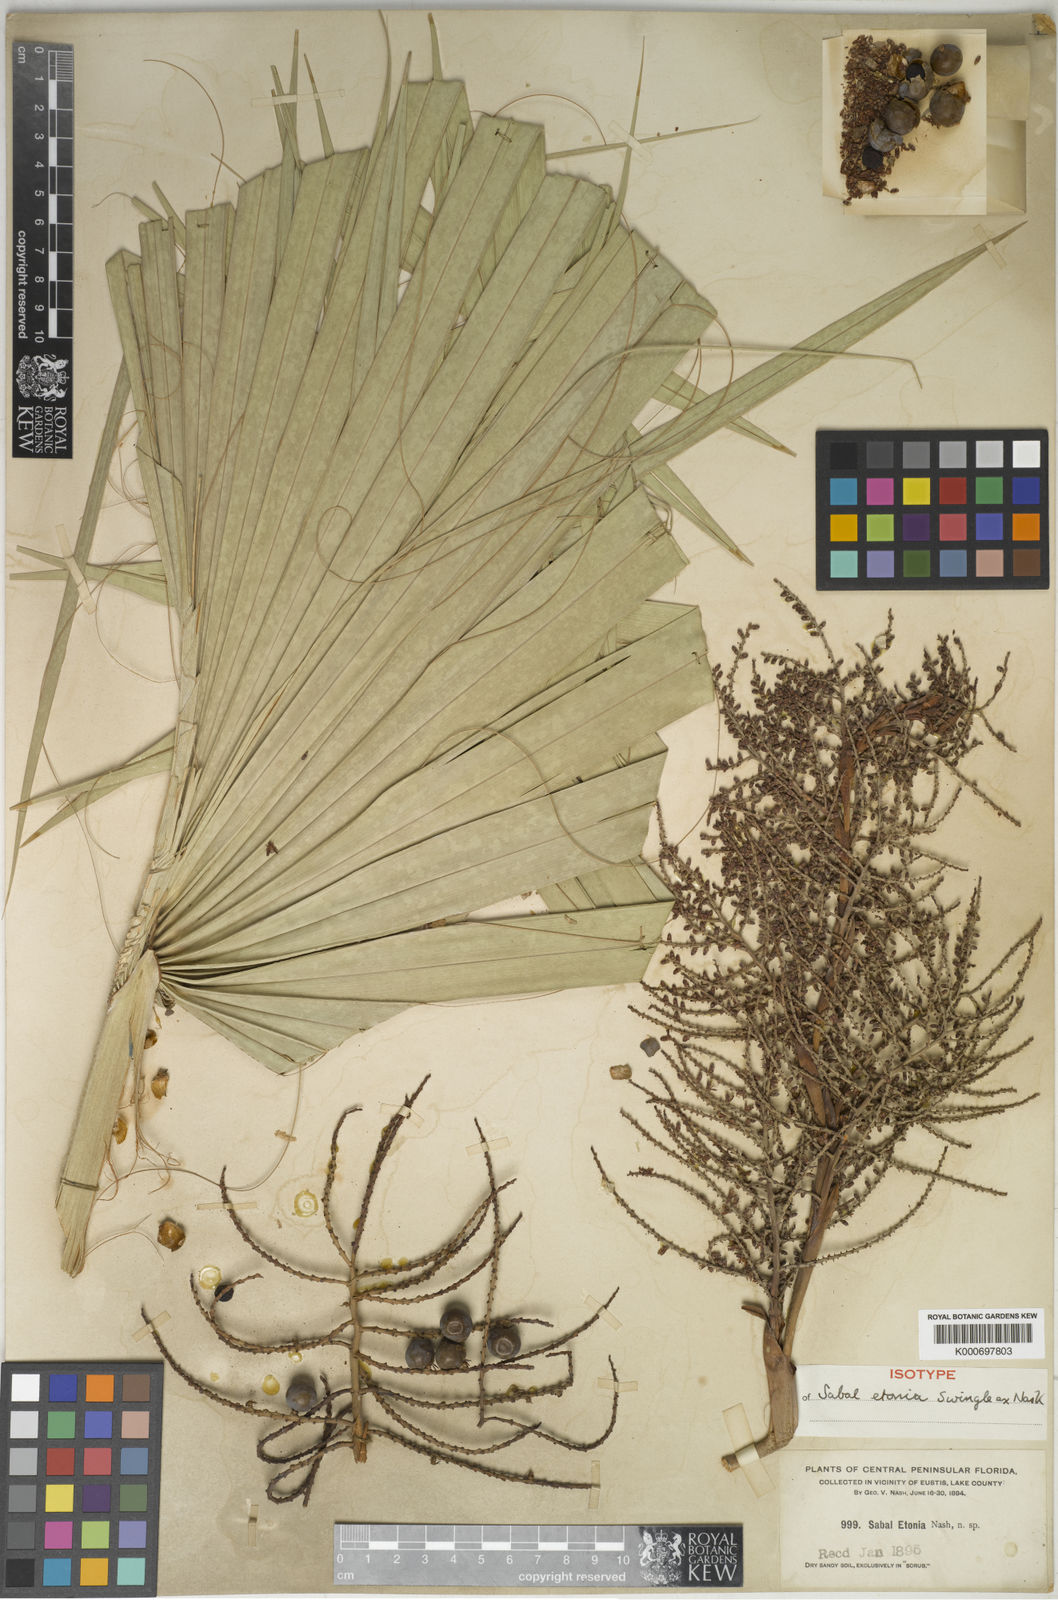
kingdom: Plantae
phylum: Tracheophyta
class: Liliopsida
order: Arecales
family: Arecaceae
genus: Sabal
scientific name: Sabal etonia
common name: Dwarf palmetto
